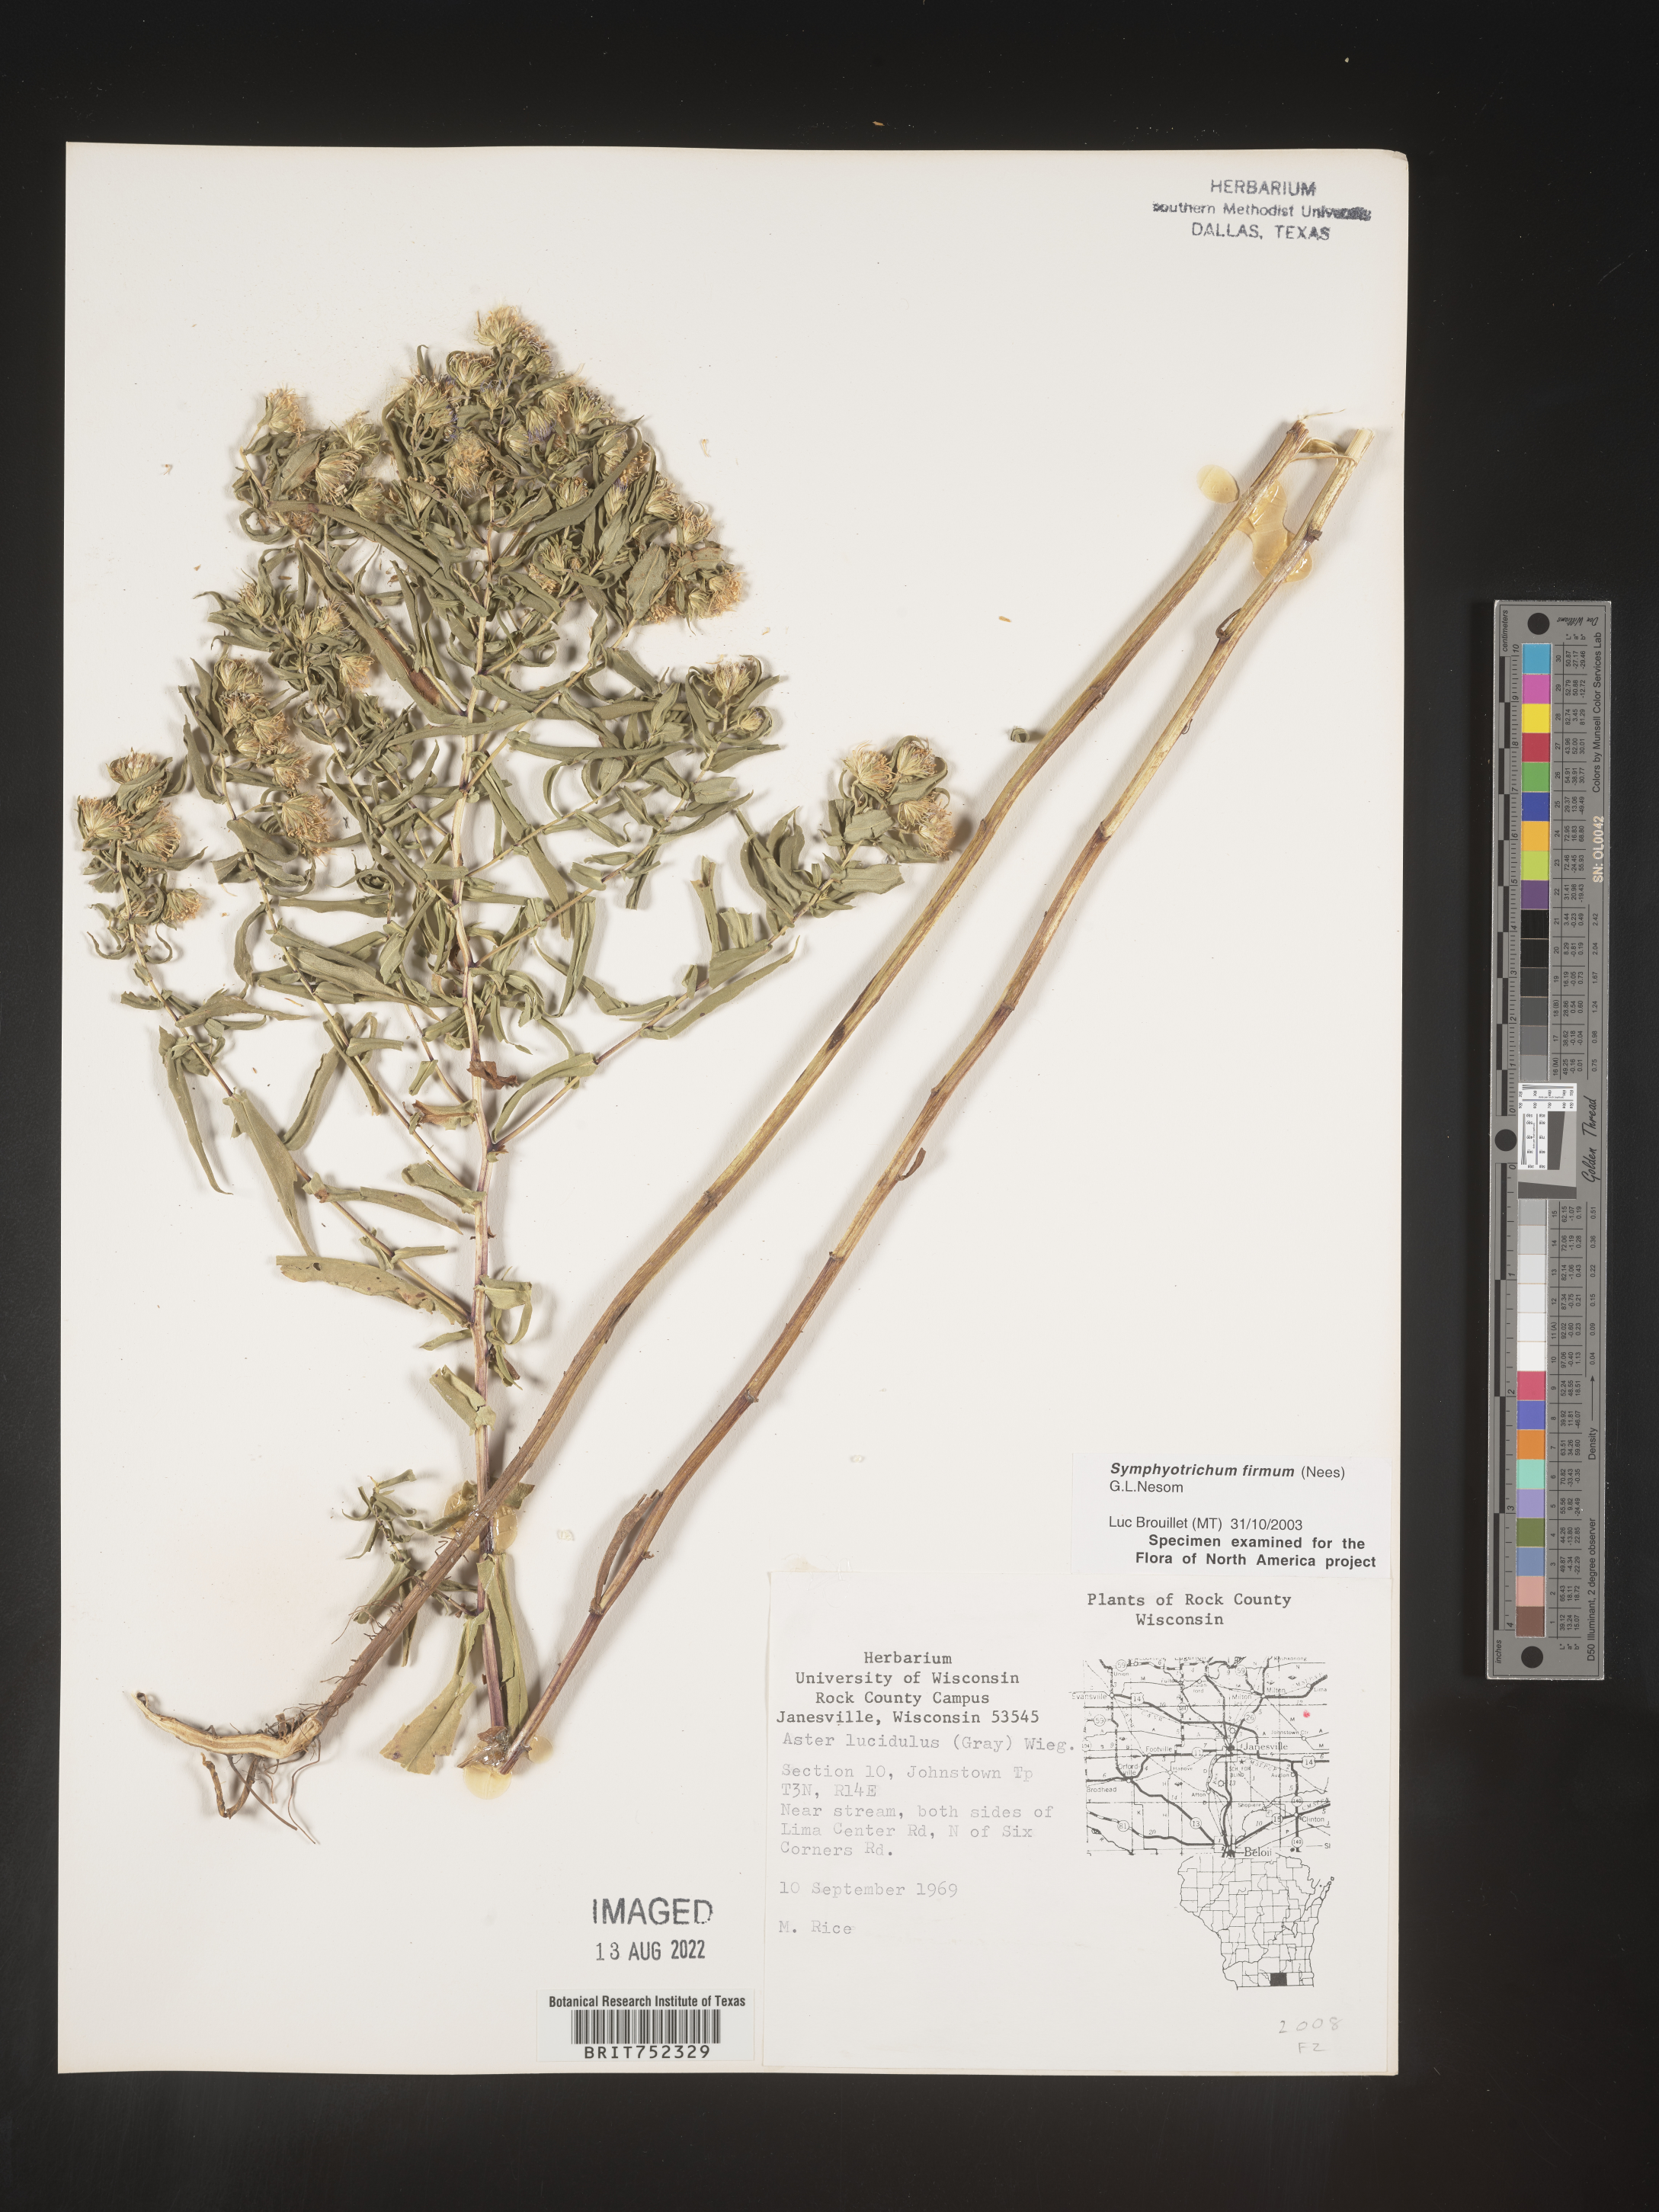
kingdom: Plantae
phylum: Tracheophyta
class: Magnoliopsida
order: Asterales
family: Asteraceae
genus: Symphyotrichum
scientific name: Symphyotrichum firmum
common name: Shining aster
